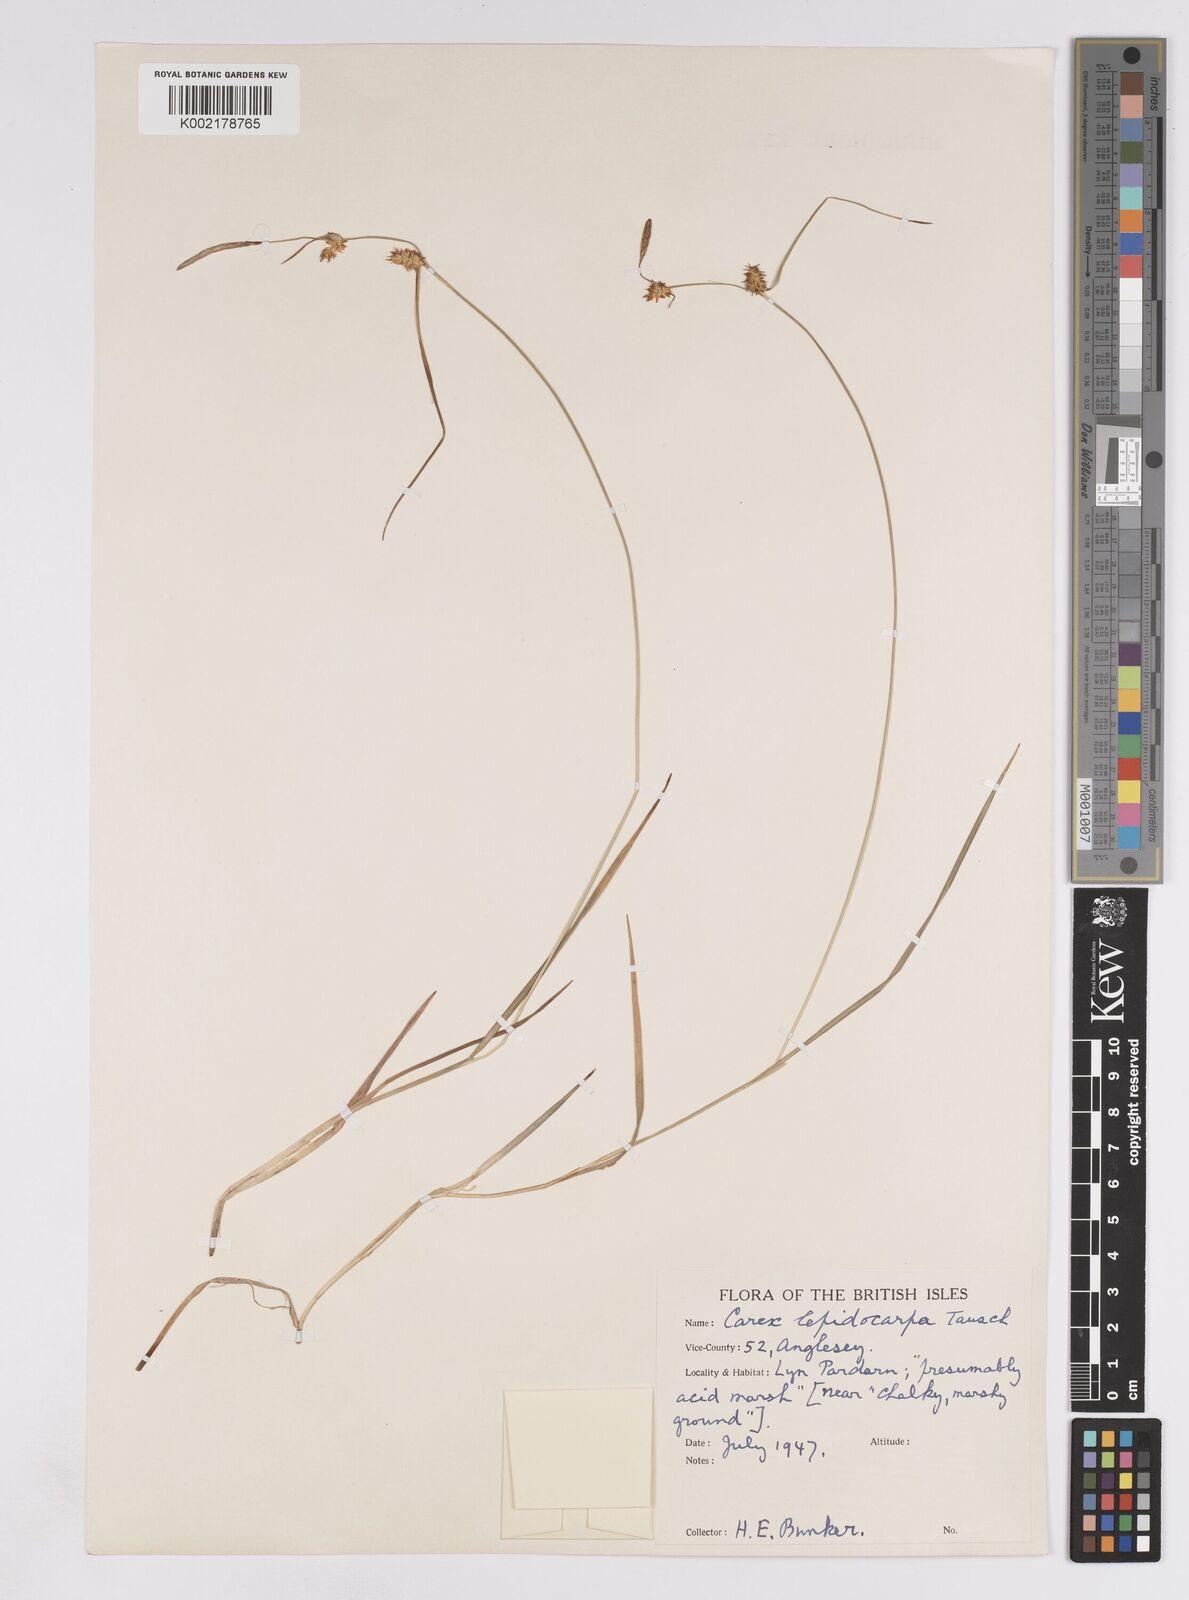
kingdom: Plantae
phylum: Tracheophyta
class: Liliopsida
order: Poales
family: Cyperaceae
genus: Carex
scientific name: Carex lepidocarpa
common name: Long-stalked yellow-sedge
